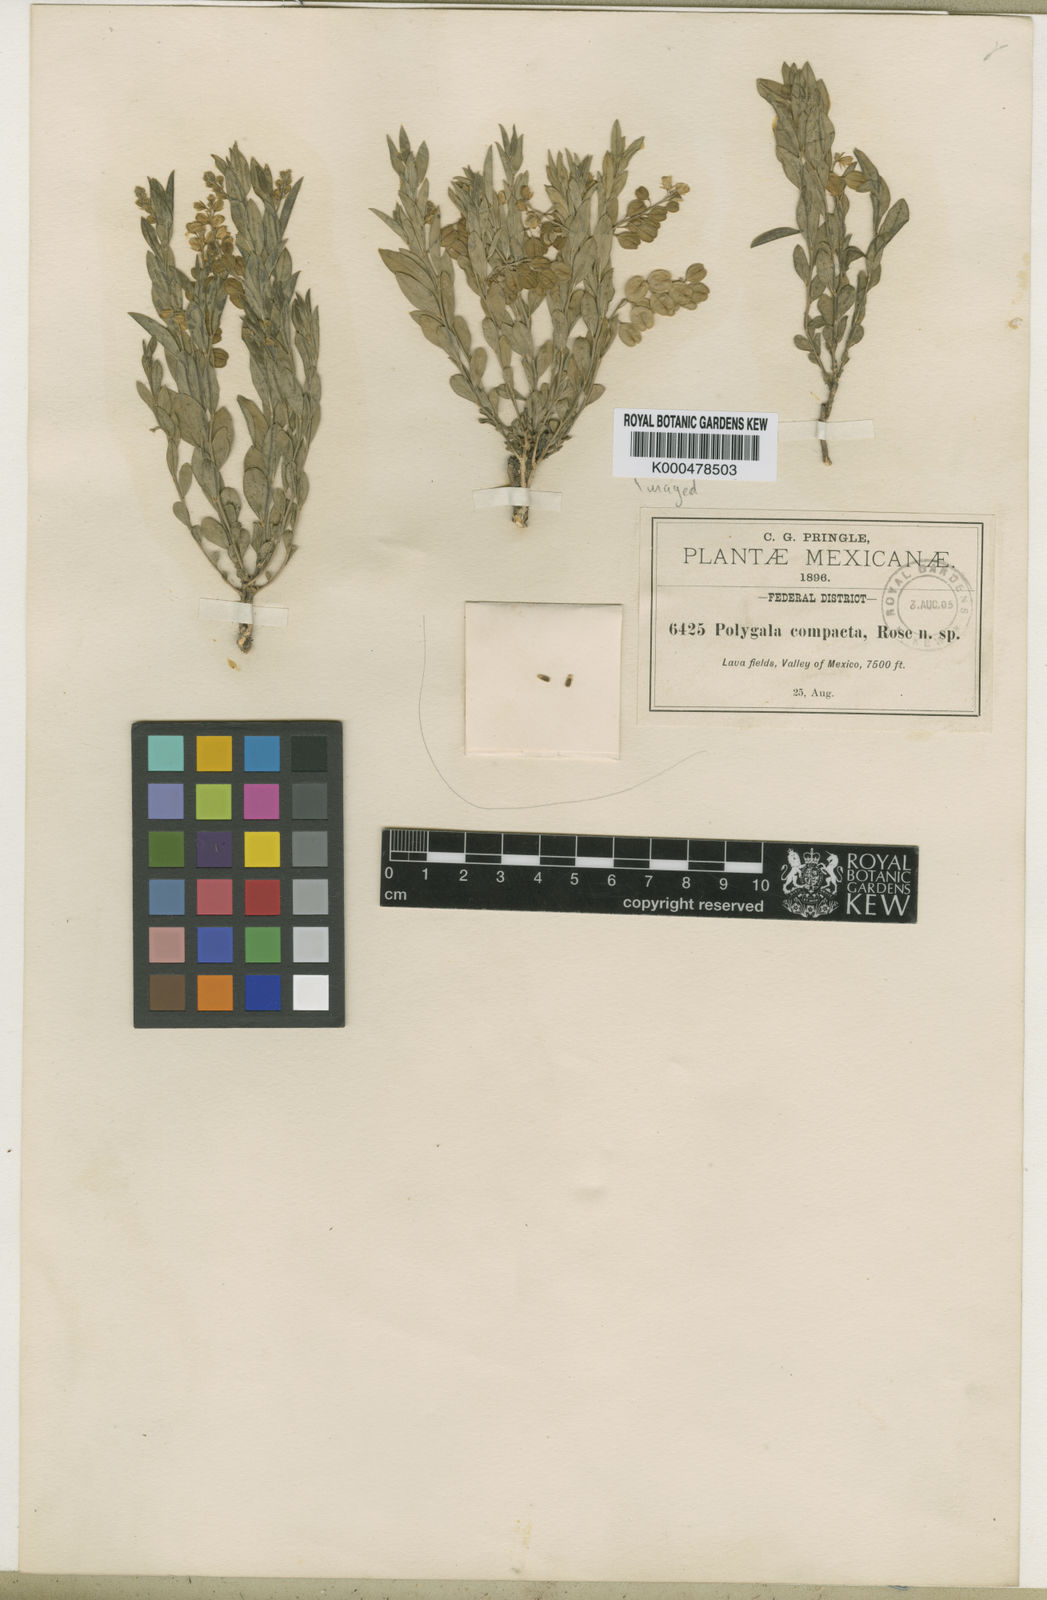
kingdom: Plantae
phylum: Tracheophyta
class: Magnoliopsida
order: Fabales
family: Polygalaceae
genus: Polygala
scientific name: Polygala compacta
